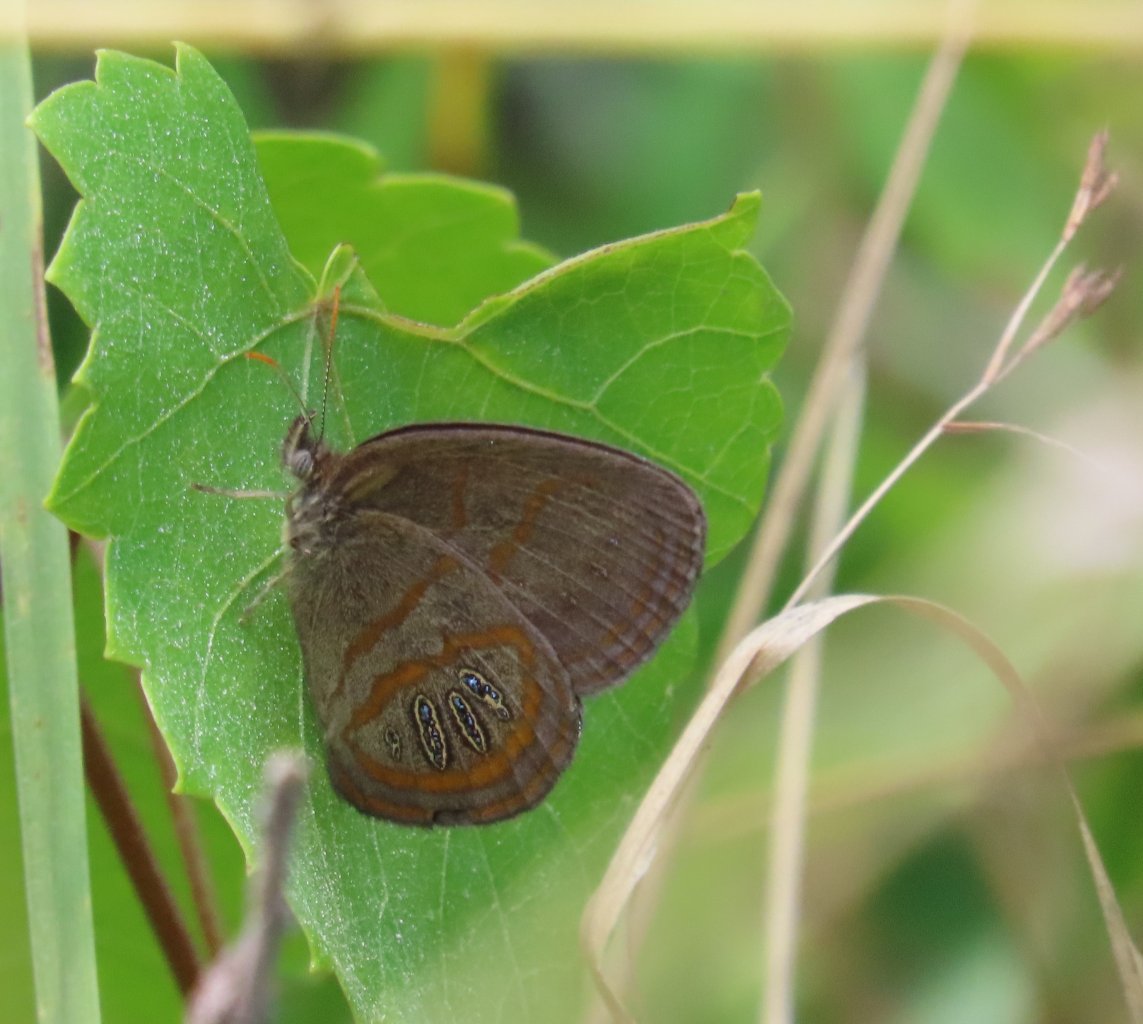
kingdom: Animalia
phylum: Arthropoda
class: Insecta
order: Lepidoptera
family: Nymphalidae
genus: Euptychia
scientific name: Euptychia phocion
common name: Georgia Satyr
